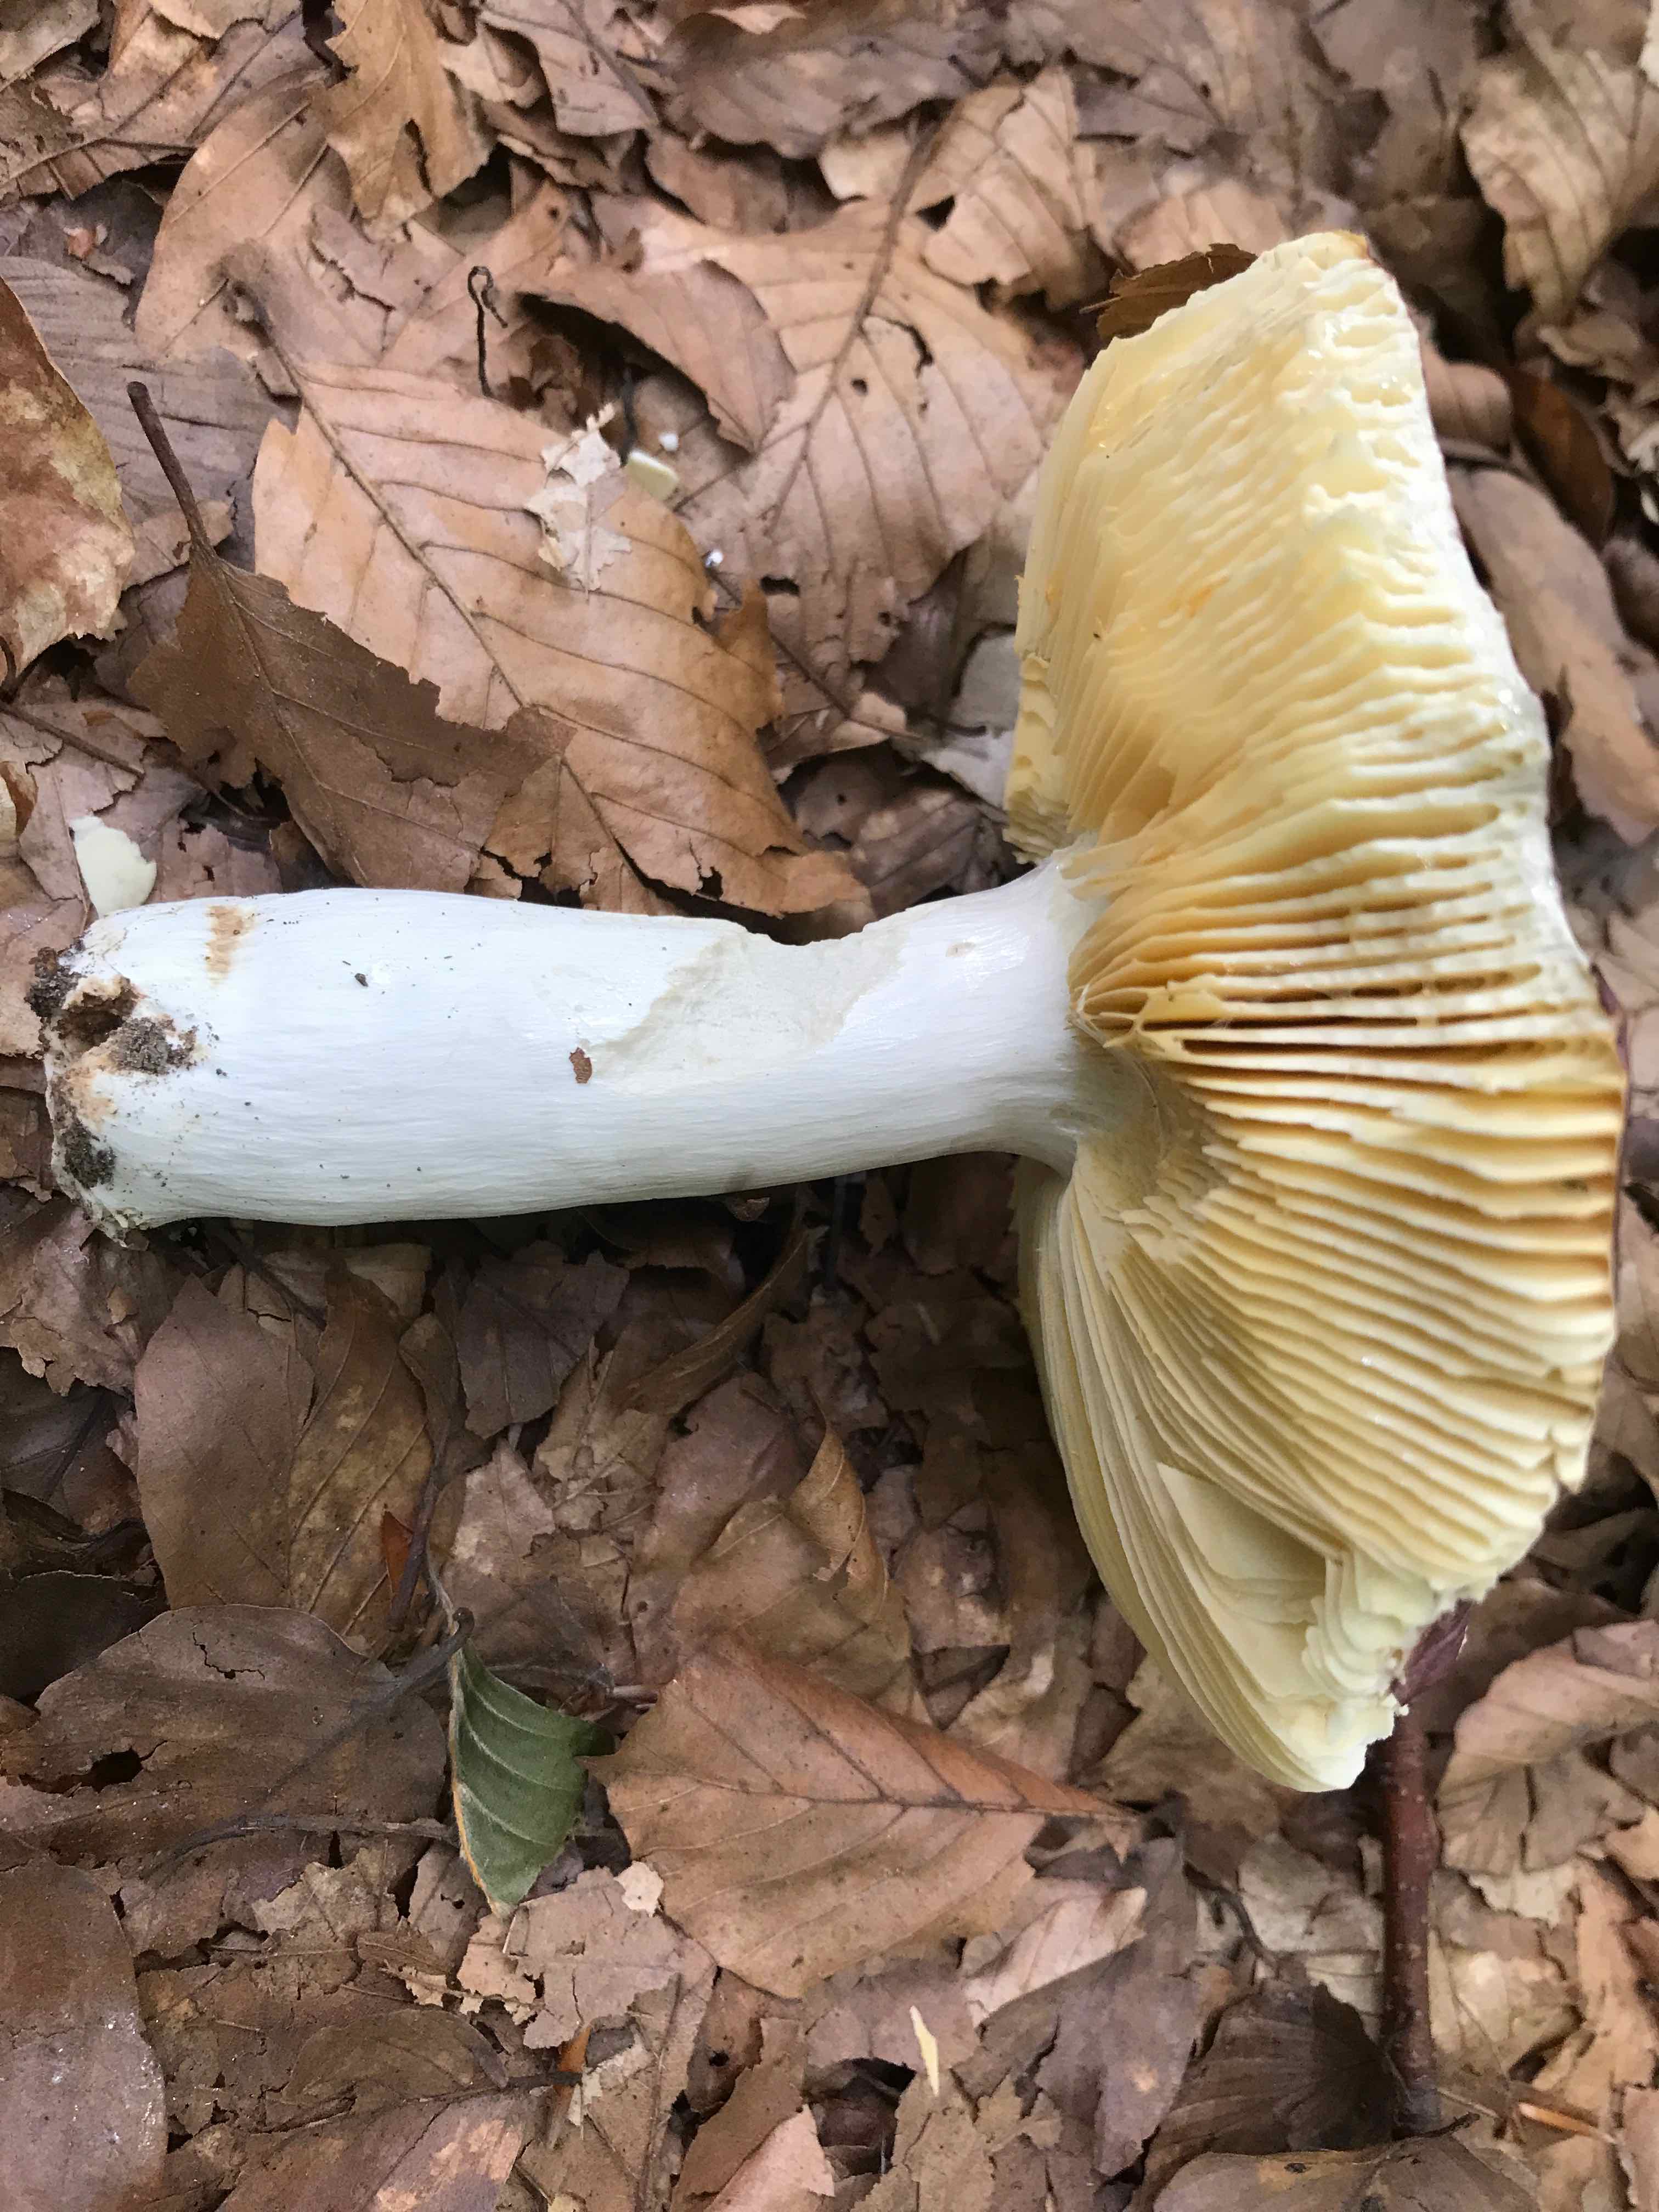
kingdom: Fungi
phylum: Basidiomycota
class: Agaricomycetes
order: Russulales
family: Russulaceae
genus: Russula
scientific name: Russula
